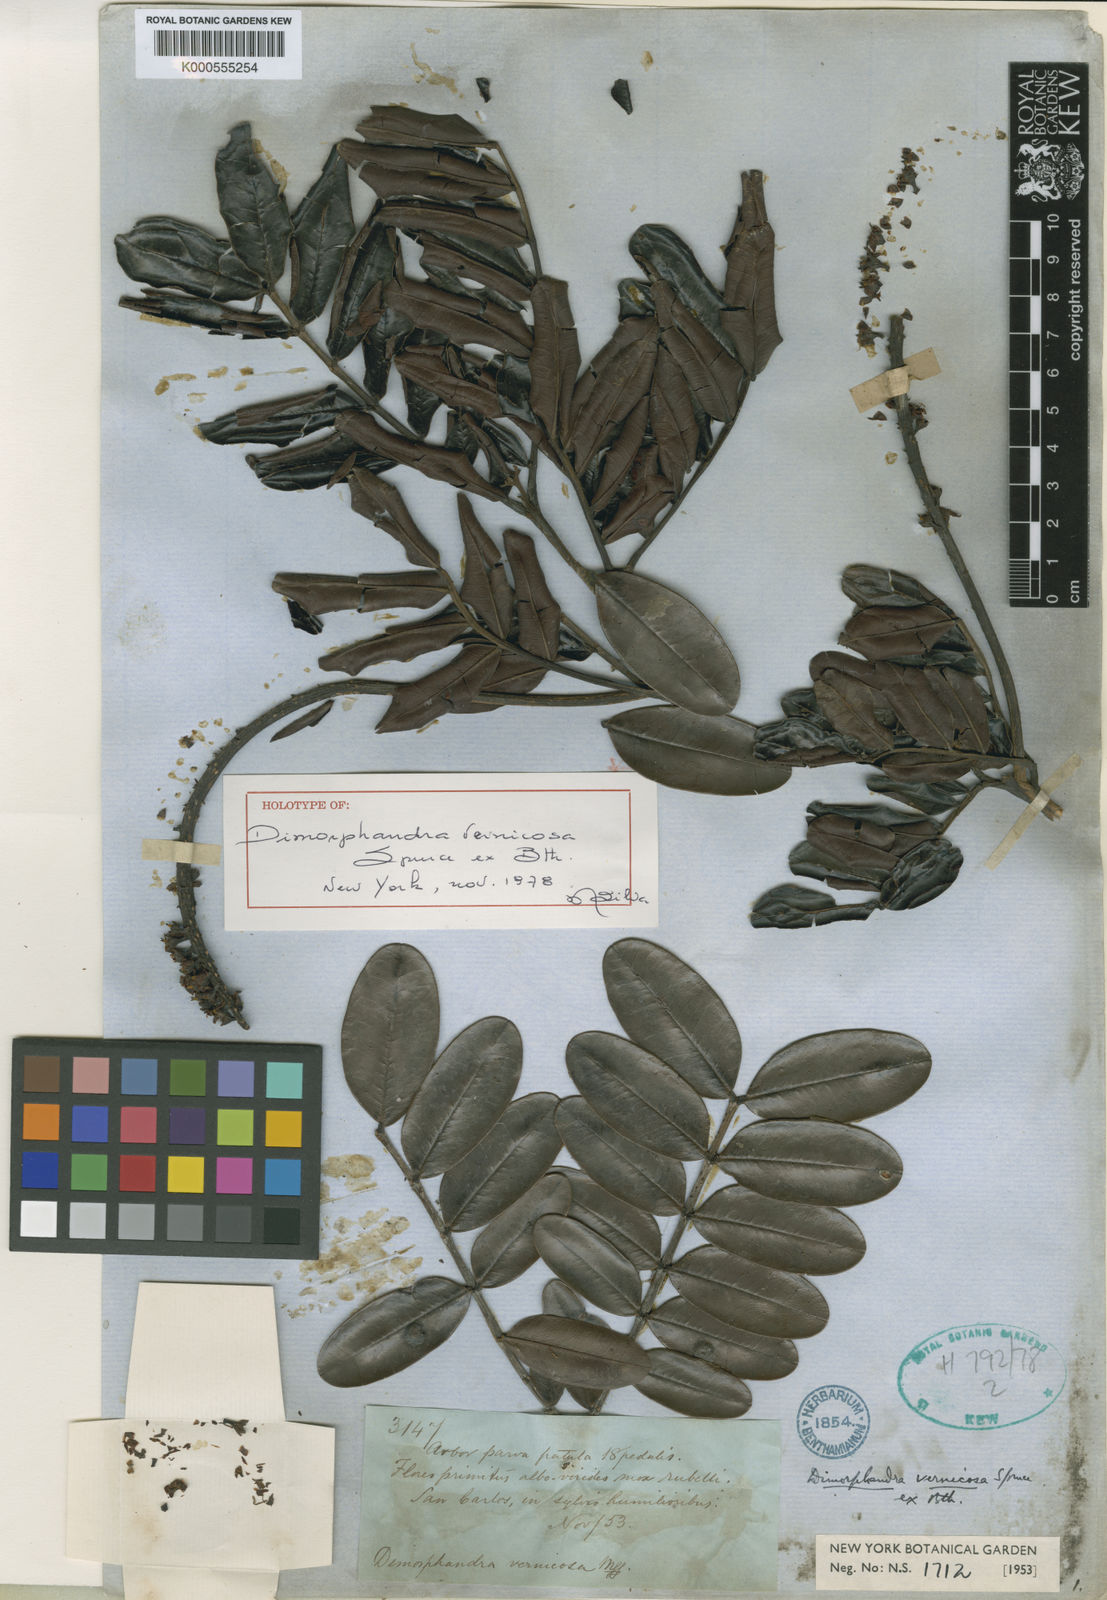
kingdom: Plantae
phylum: Tracheophyta
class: Magnoliopsida
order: Fabales
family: Fabaceae
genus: Dimorphandra
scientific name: Dimorphandra
